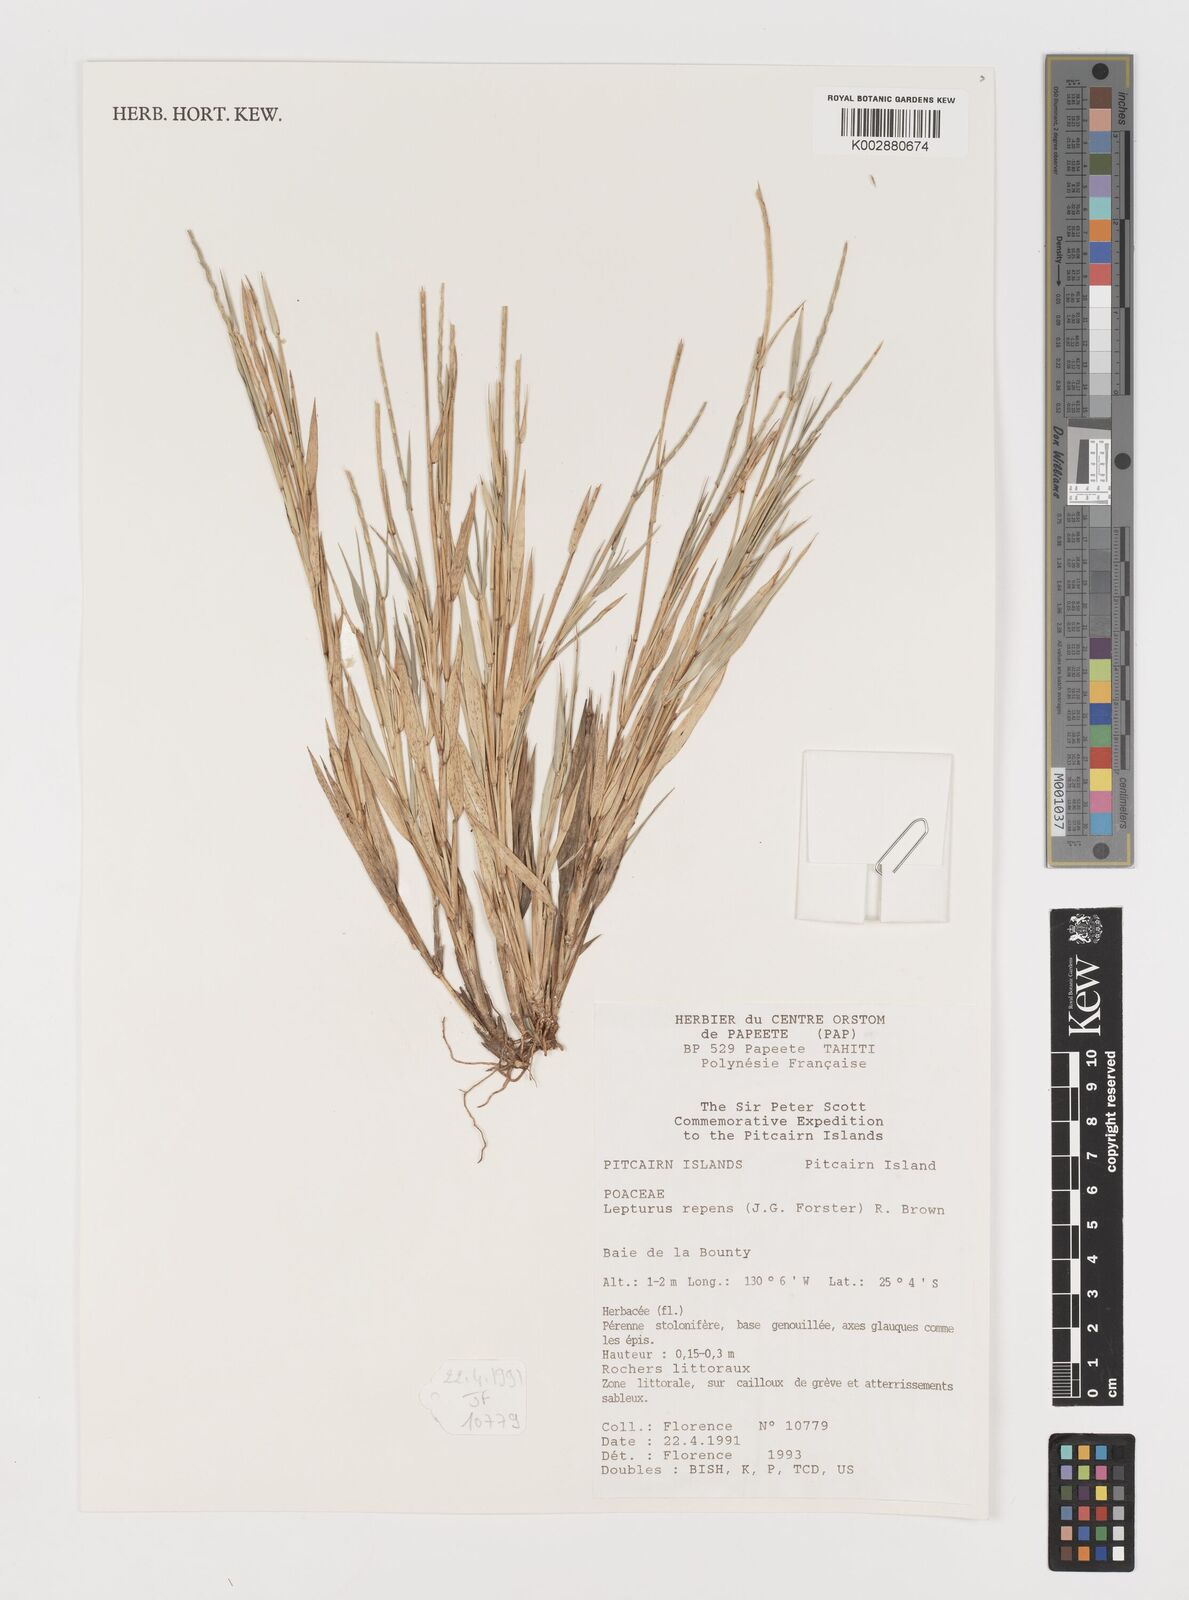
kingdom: Plantae
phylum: Tracheophyta
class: Liliopsida
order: Poales
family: Poaceae
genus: Lepturus
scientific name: Lepturus repens
